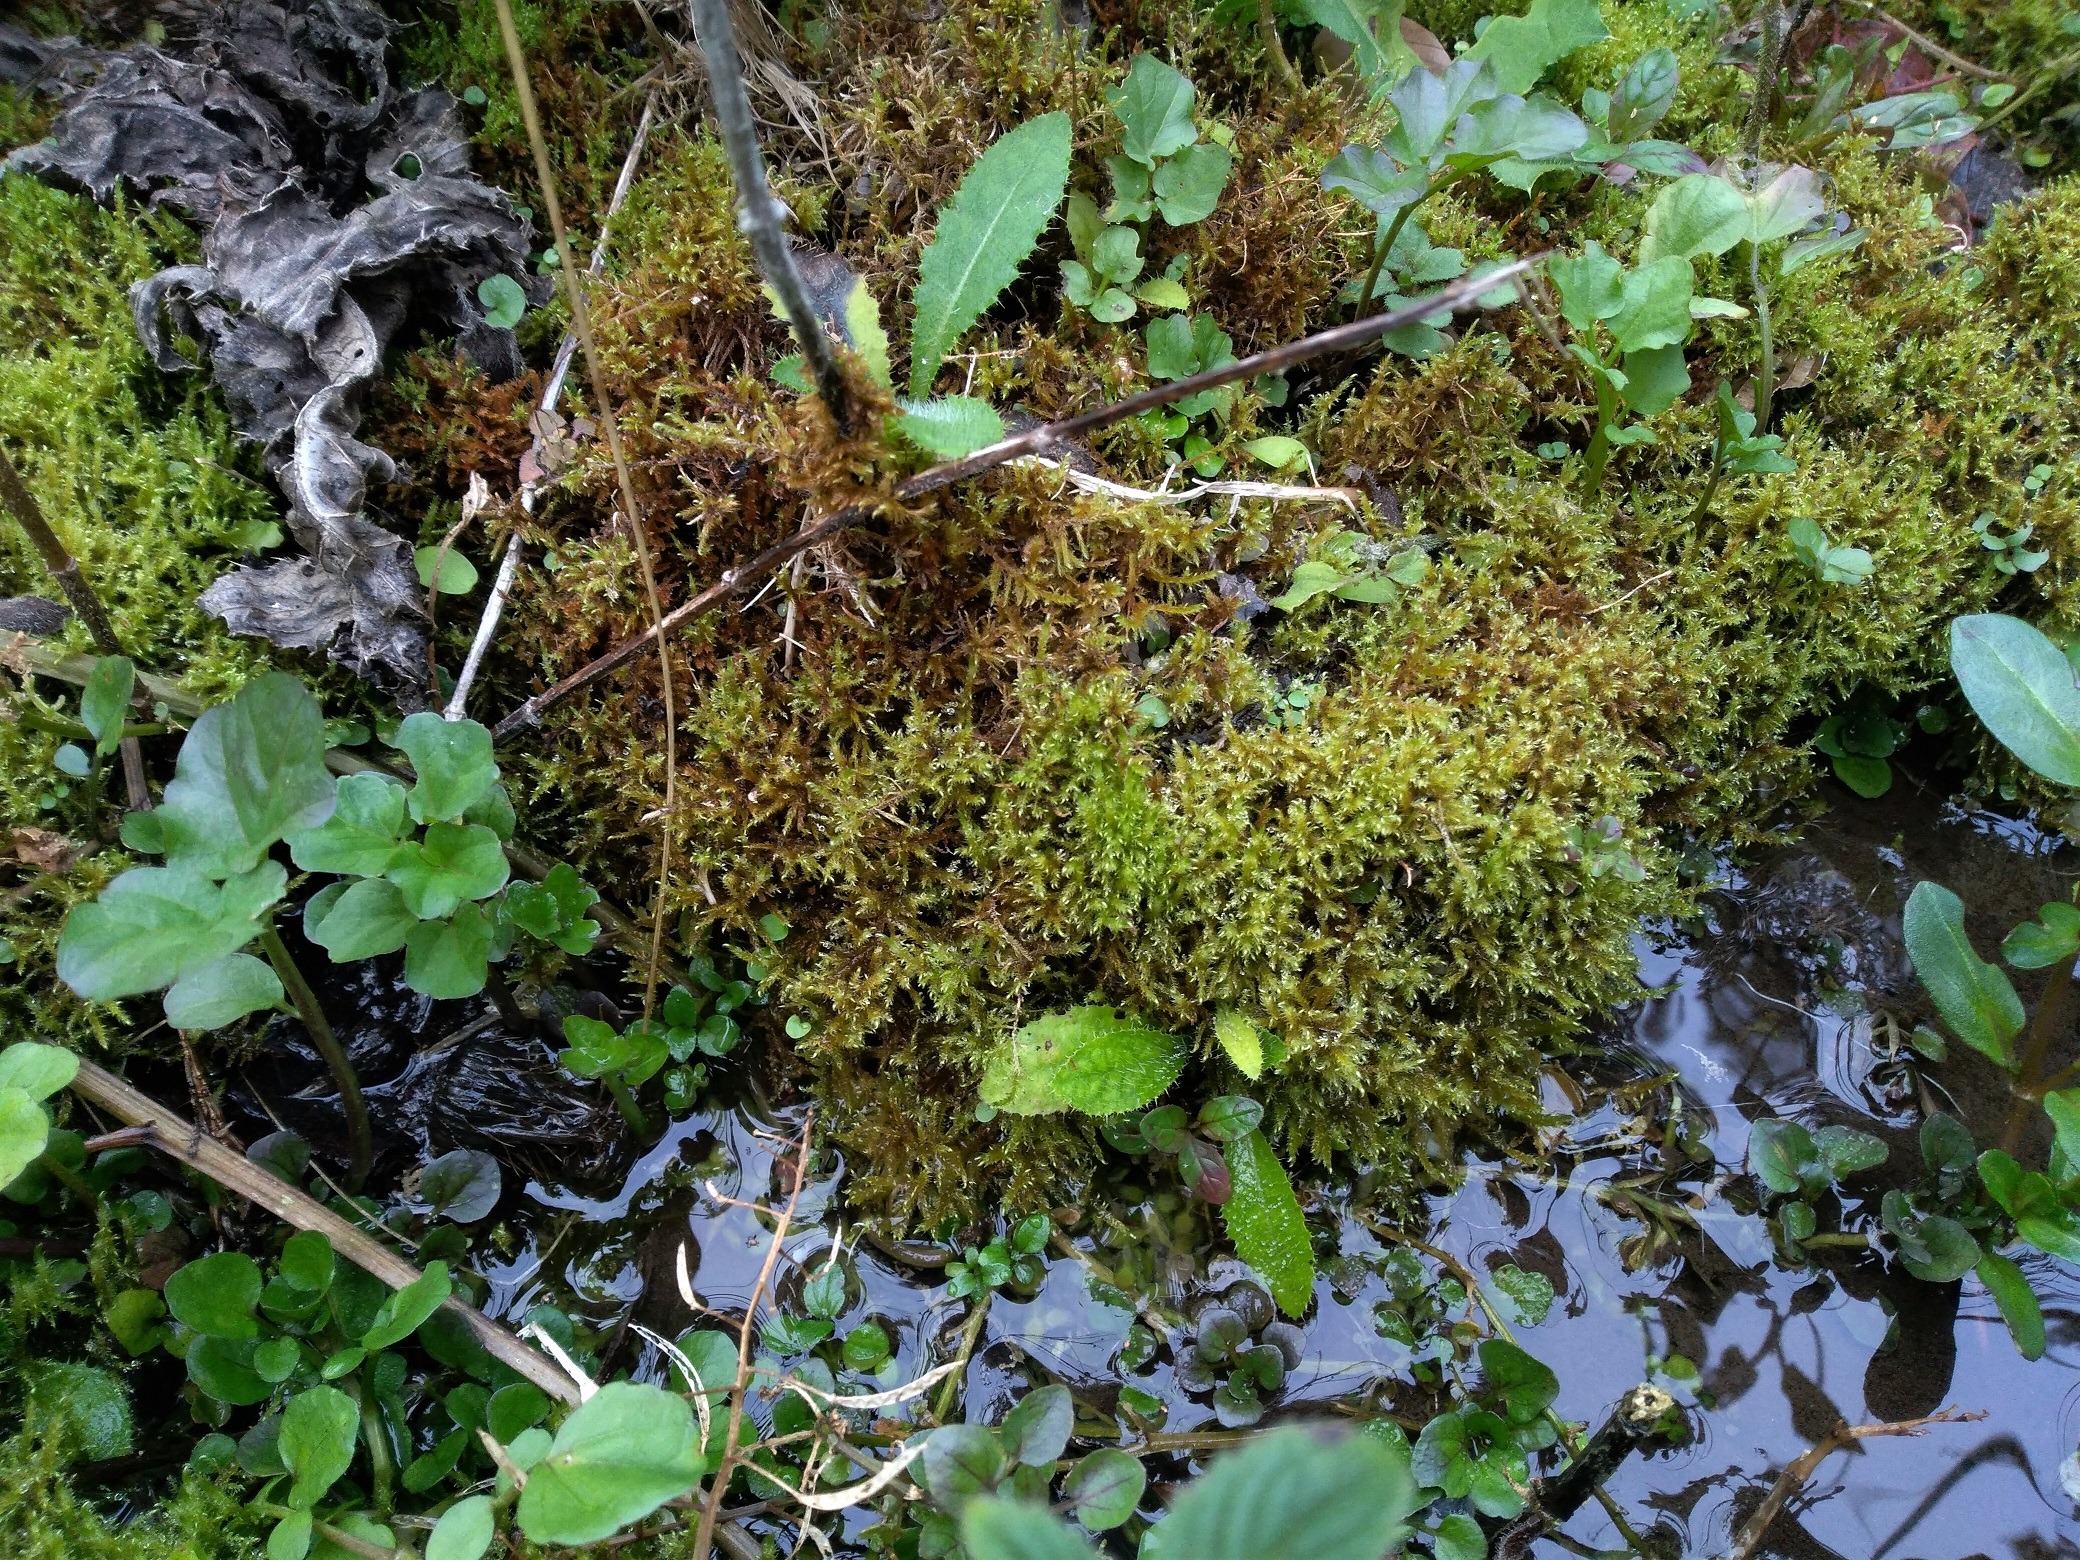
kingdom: Plantae
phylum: Bryophyta
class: Bryopsida
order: Hypnales
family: Amblystegiaceae
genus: Cratoneuron
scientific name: Cratoneuron filicinum
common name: Grøn eremitmos
